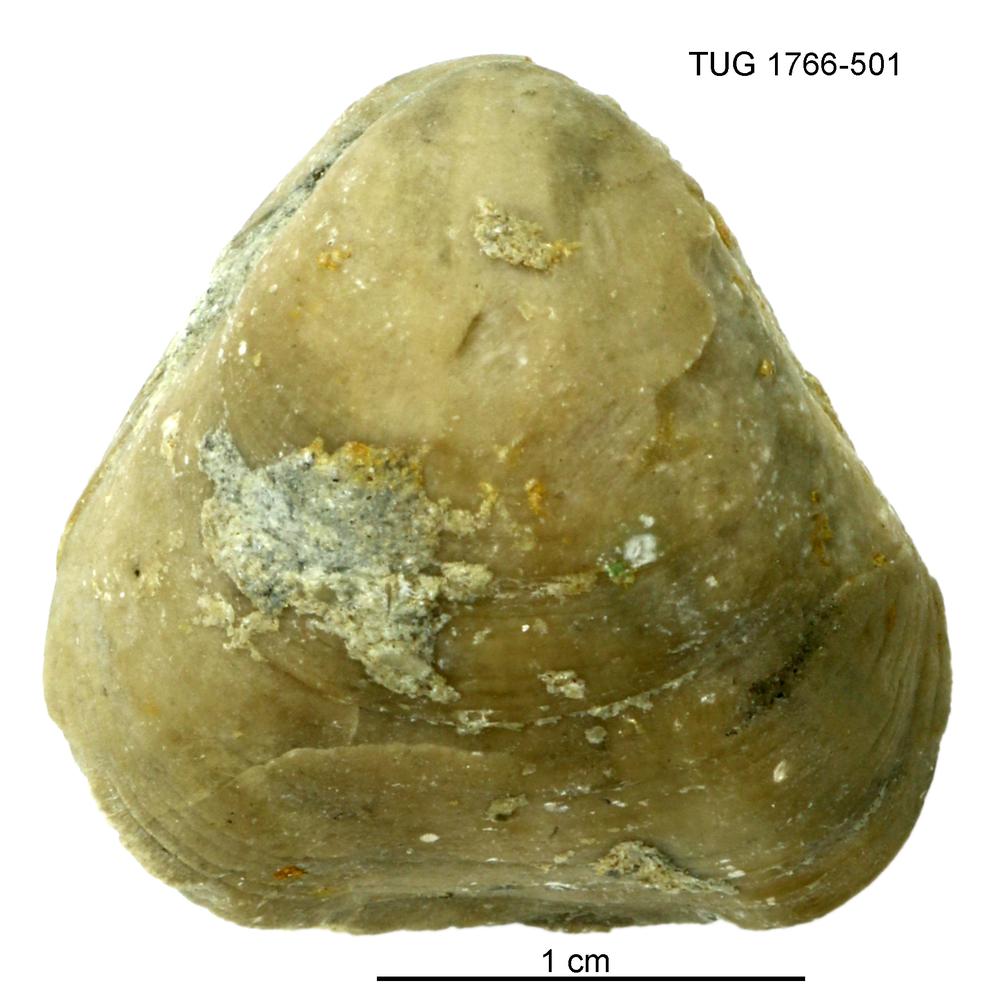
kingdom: Animalia
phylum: Brachiopoda
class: Rhynchonellata
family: Porambonitidae
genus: Porambonites
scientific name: Porambonites
